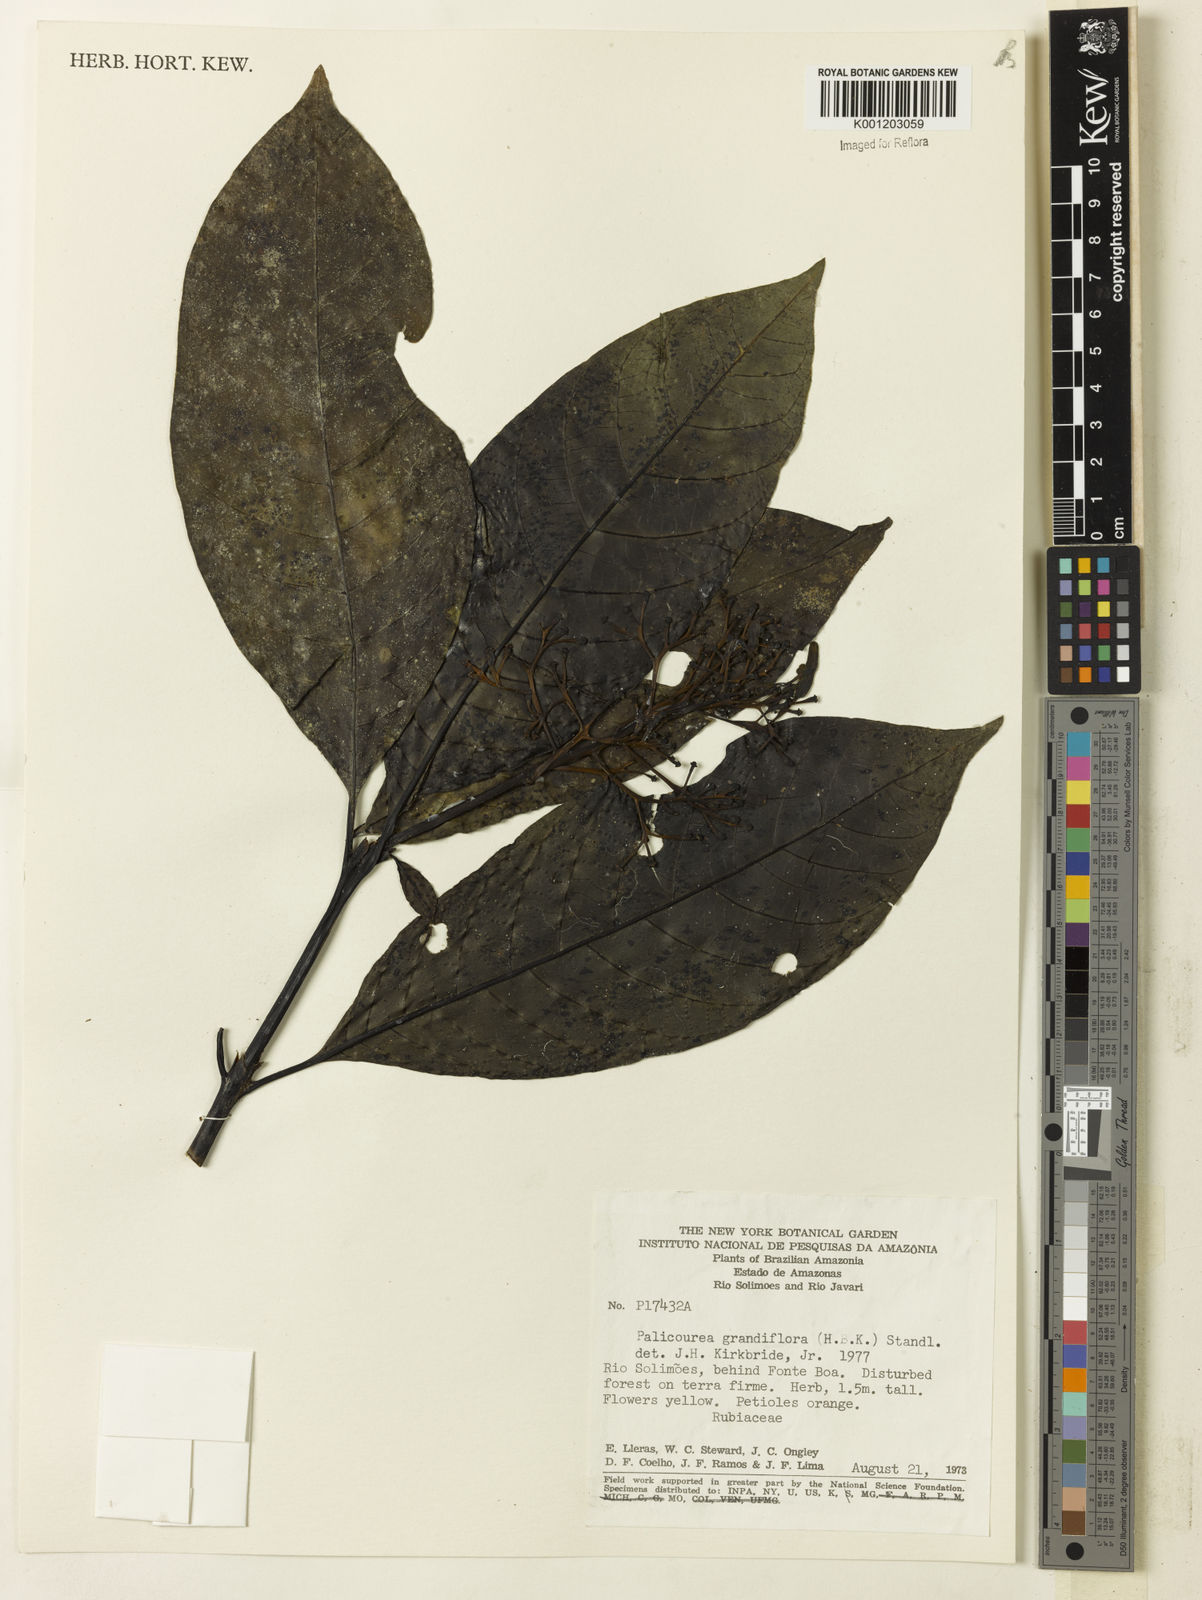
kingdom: Plantae
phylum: Tracheophyta
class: Magnoliopsida
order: Gentianales
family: Rubiaceae
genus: Palicourea
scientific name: Palicourea grandiflora
